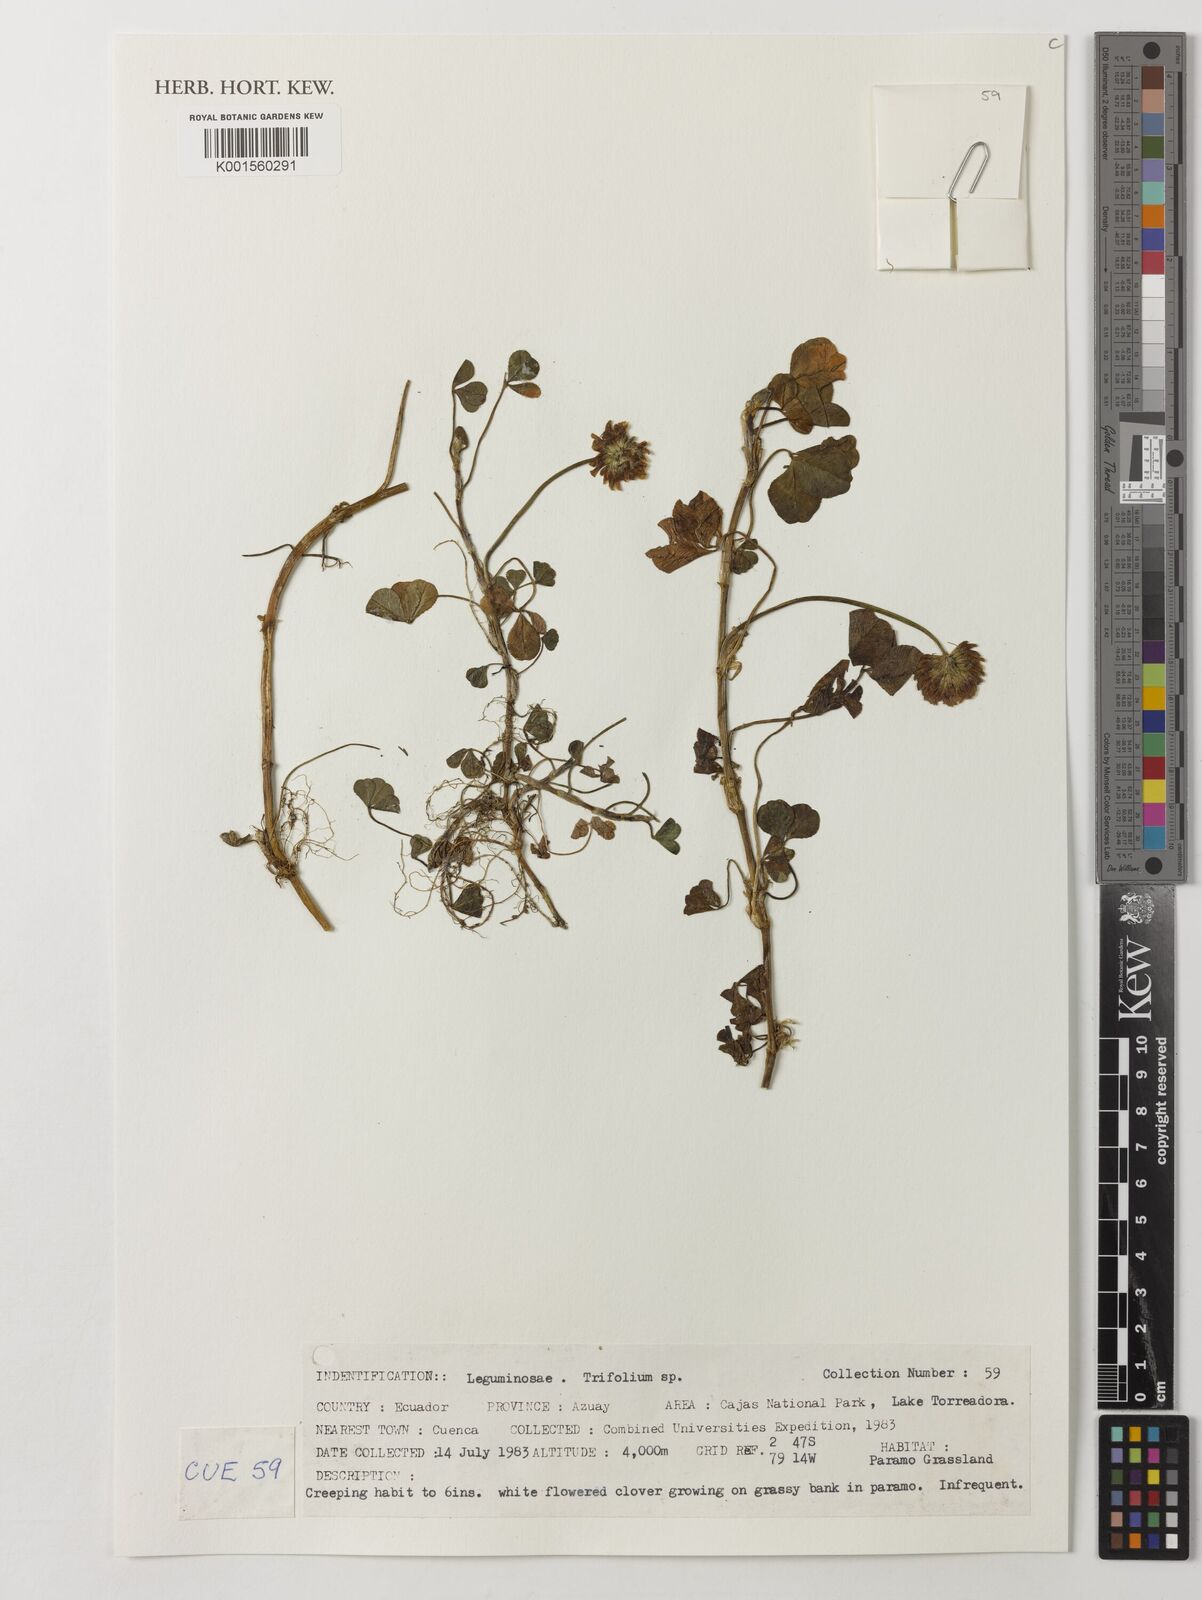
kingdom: Plantae
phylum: Tracheophyta
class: Magnoliopsida
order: Fabales
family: Fabaceae
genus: Trifolium
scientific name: Trifolium
